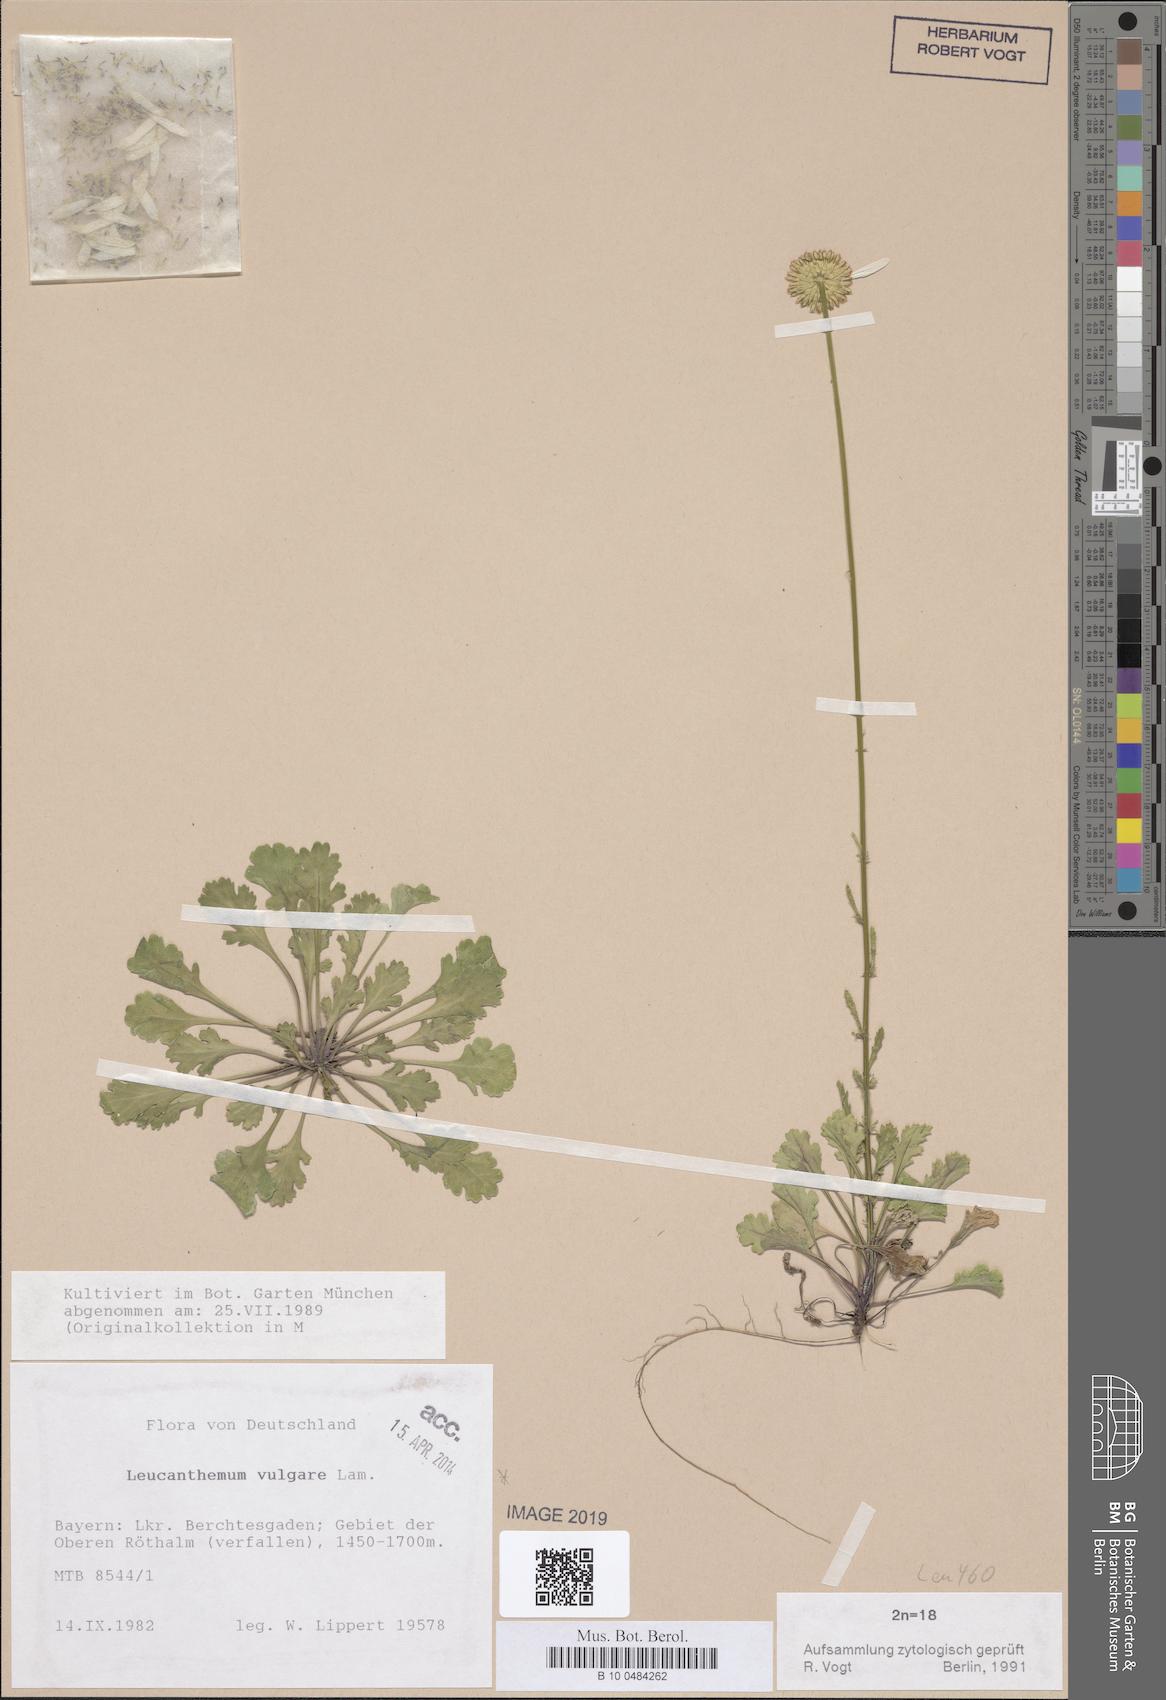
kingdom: Plantae
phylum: Tracheophyta
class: Magnoliopsida
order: Asterales
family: Asteraceae
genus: Leucanthemum
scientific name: Leucanthemum vulgare
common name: Oxeye daisy
